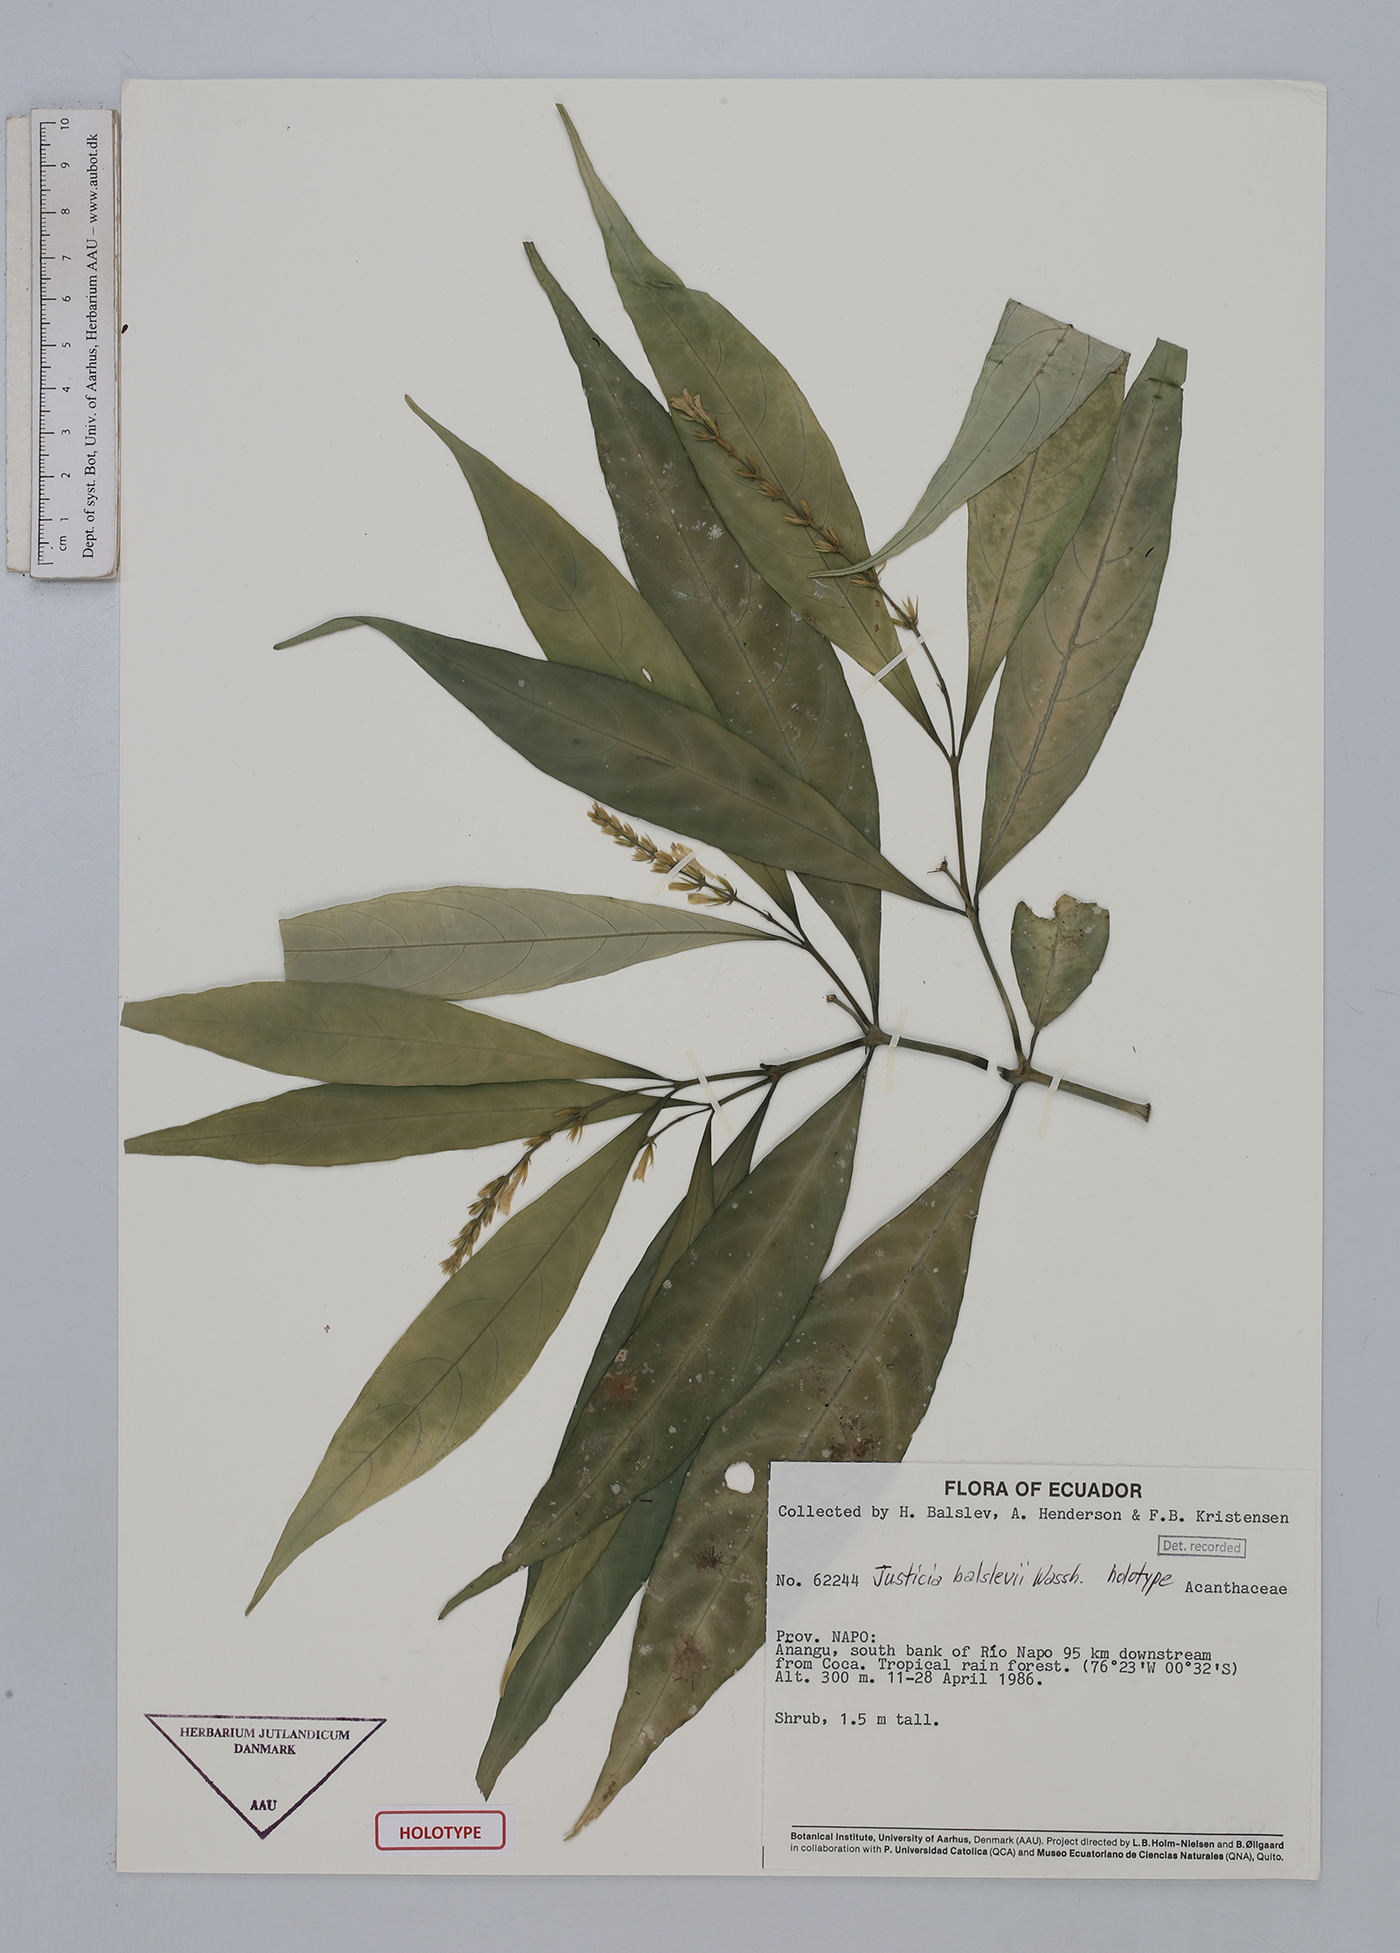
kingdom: Plantae
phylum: Tracheophyta
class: Magnoliopsida
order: Lamiales
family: Acanthaceae
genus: Justicia
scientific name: Justicia balslevii
